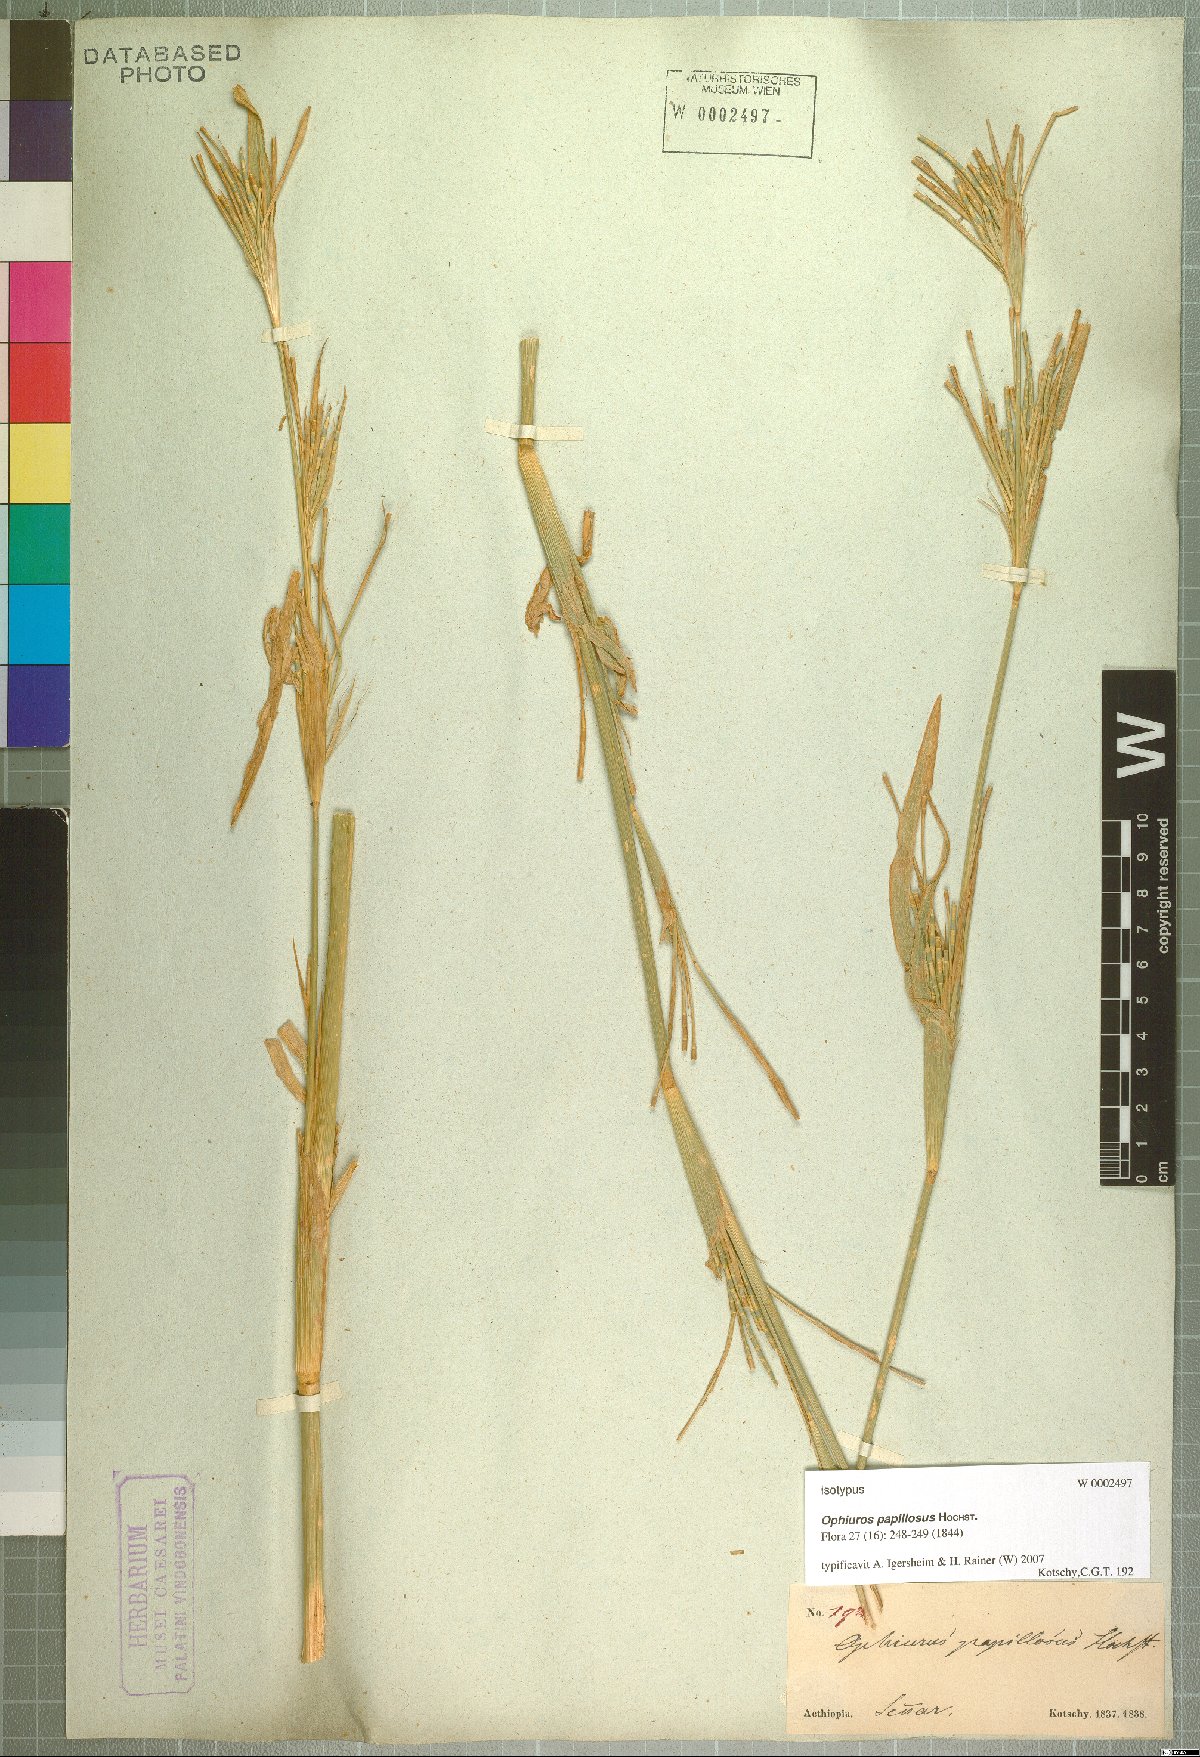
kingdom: Plantae
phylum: Tracheophyta
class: Liliopsida
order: Poales
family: Poaceae
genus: Ophiuros
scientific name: Ophiuros papillosus
